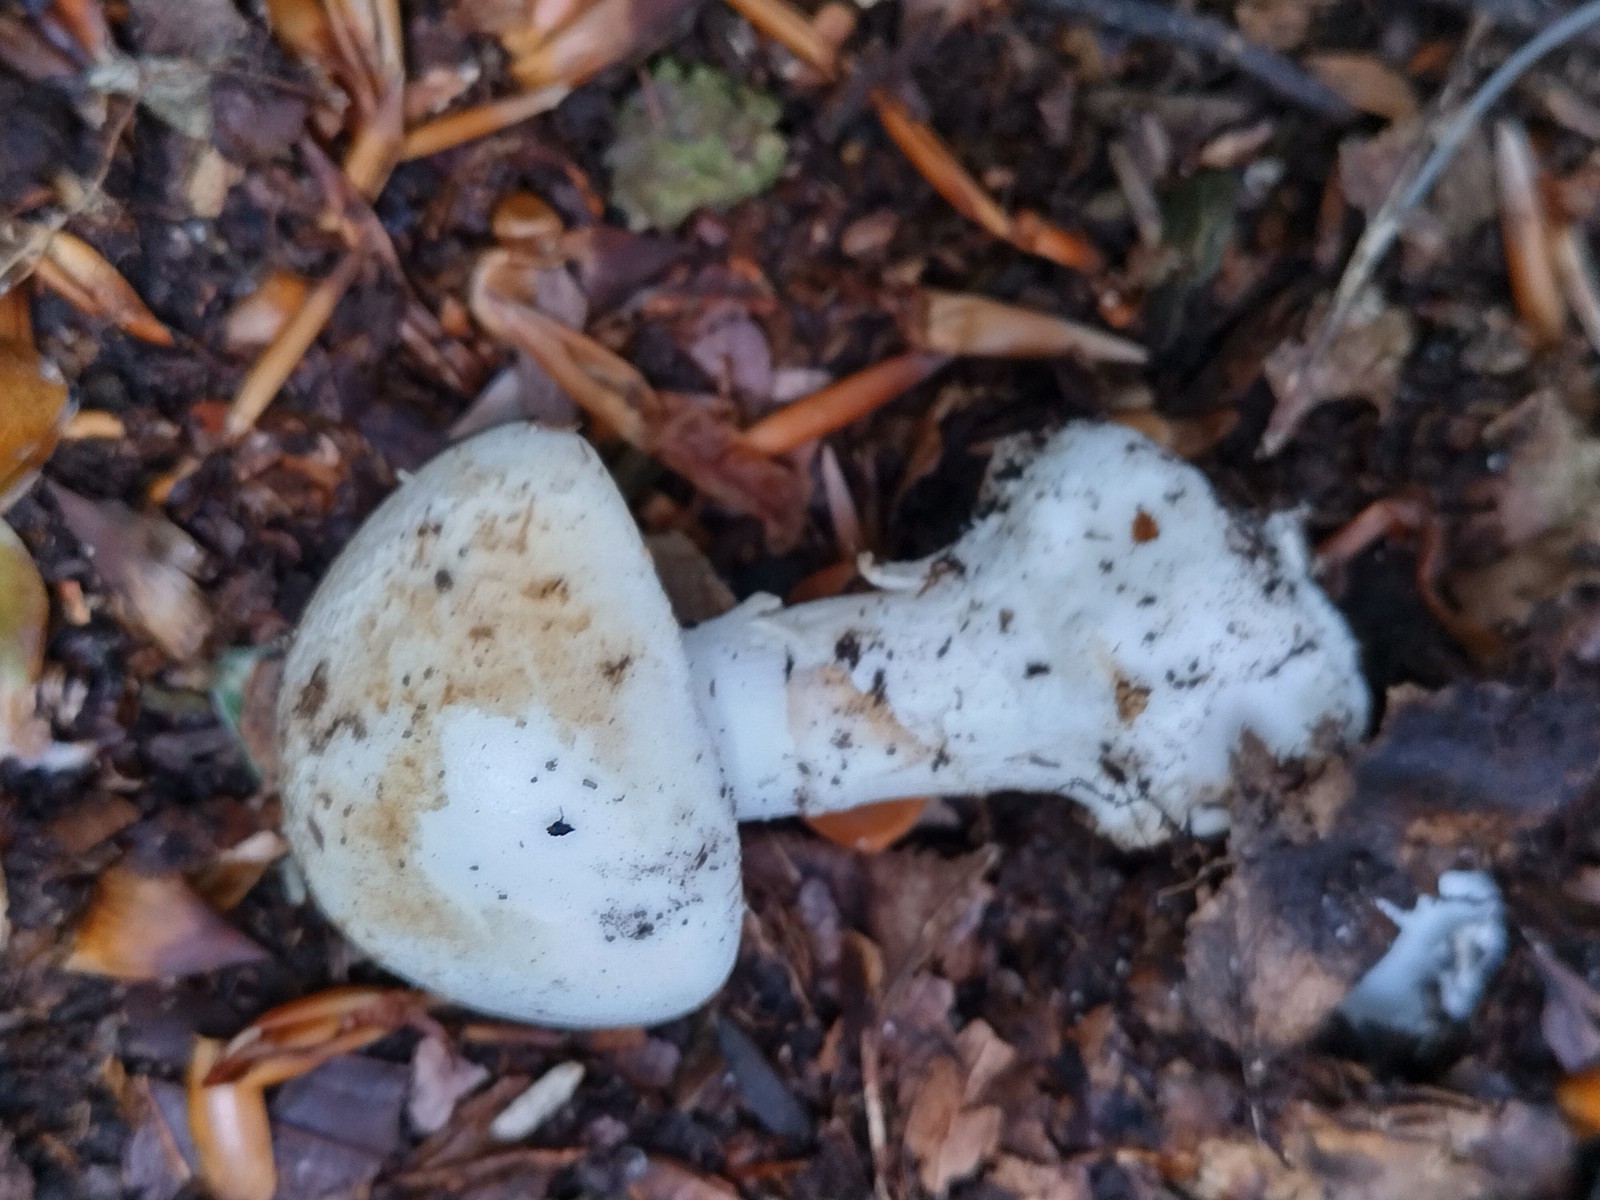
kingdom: Fungi
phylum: Basidiomycota
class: Agaricomycetes
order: Agaricales
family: Amanitaceae
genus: Amanita
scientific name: Amanita citrina
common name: kugleknoldet fluesvamp
